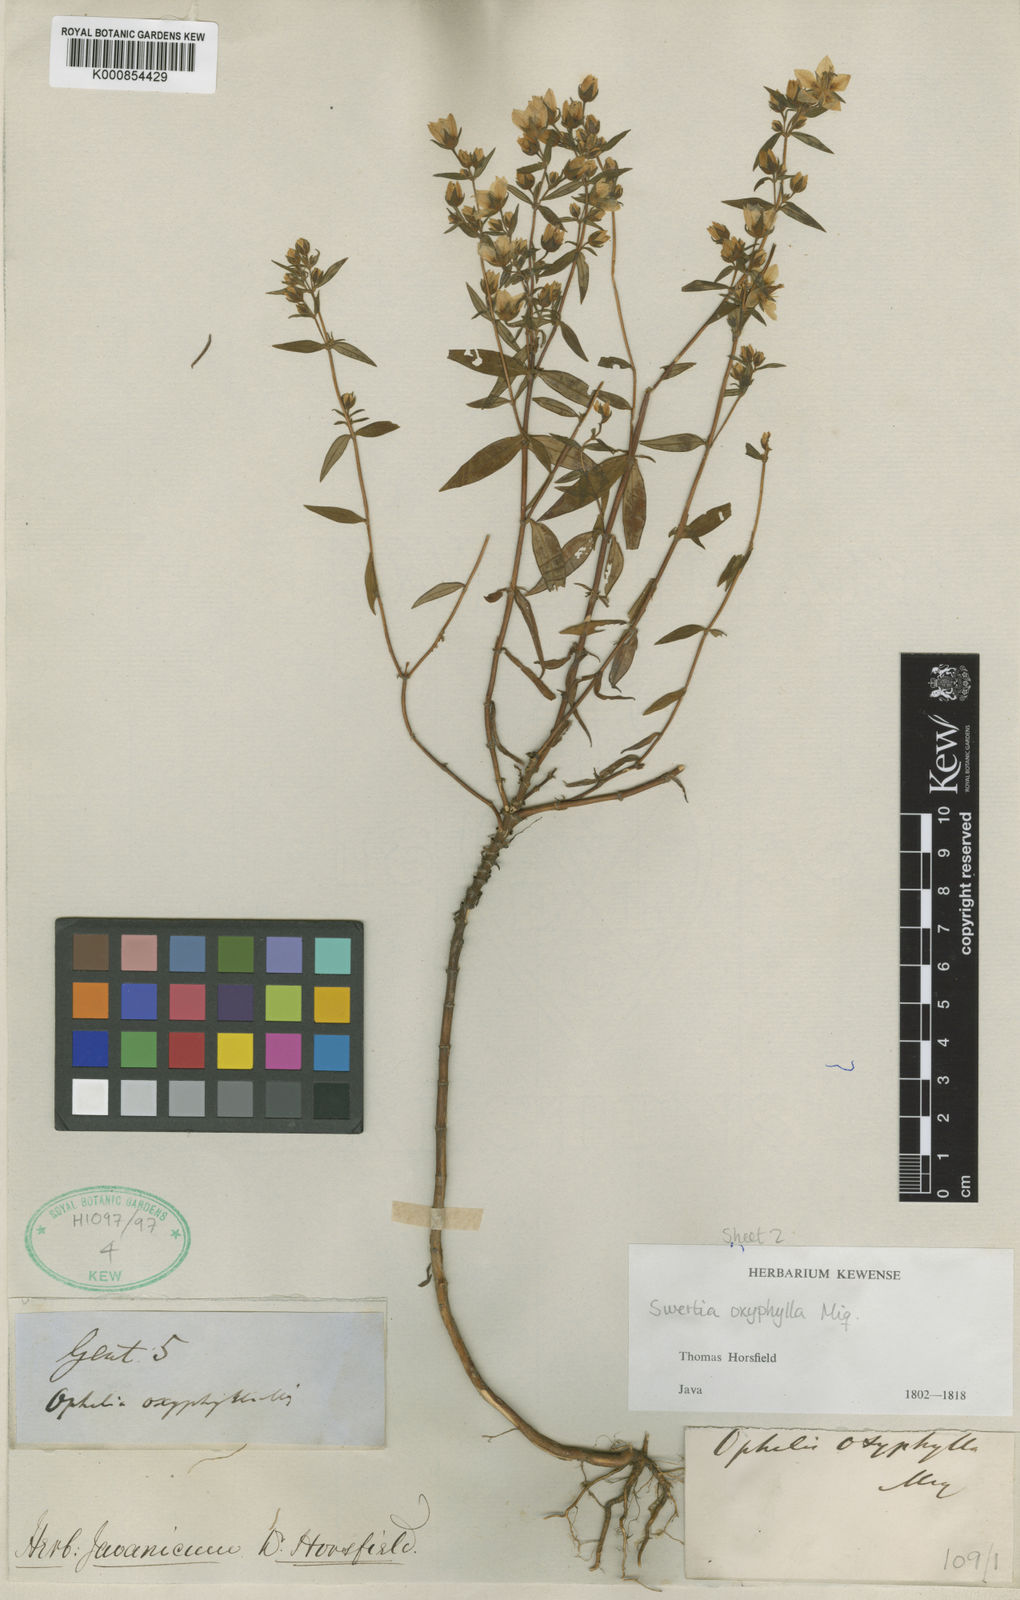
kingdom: Plantae
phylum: Tracheophyta
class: Magnoliopsida
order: Gentianales
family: Gentianaceae
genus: Swertia
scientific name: Swertia oxyphylla
